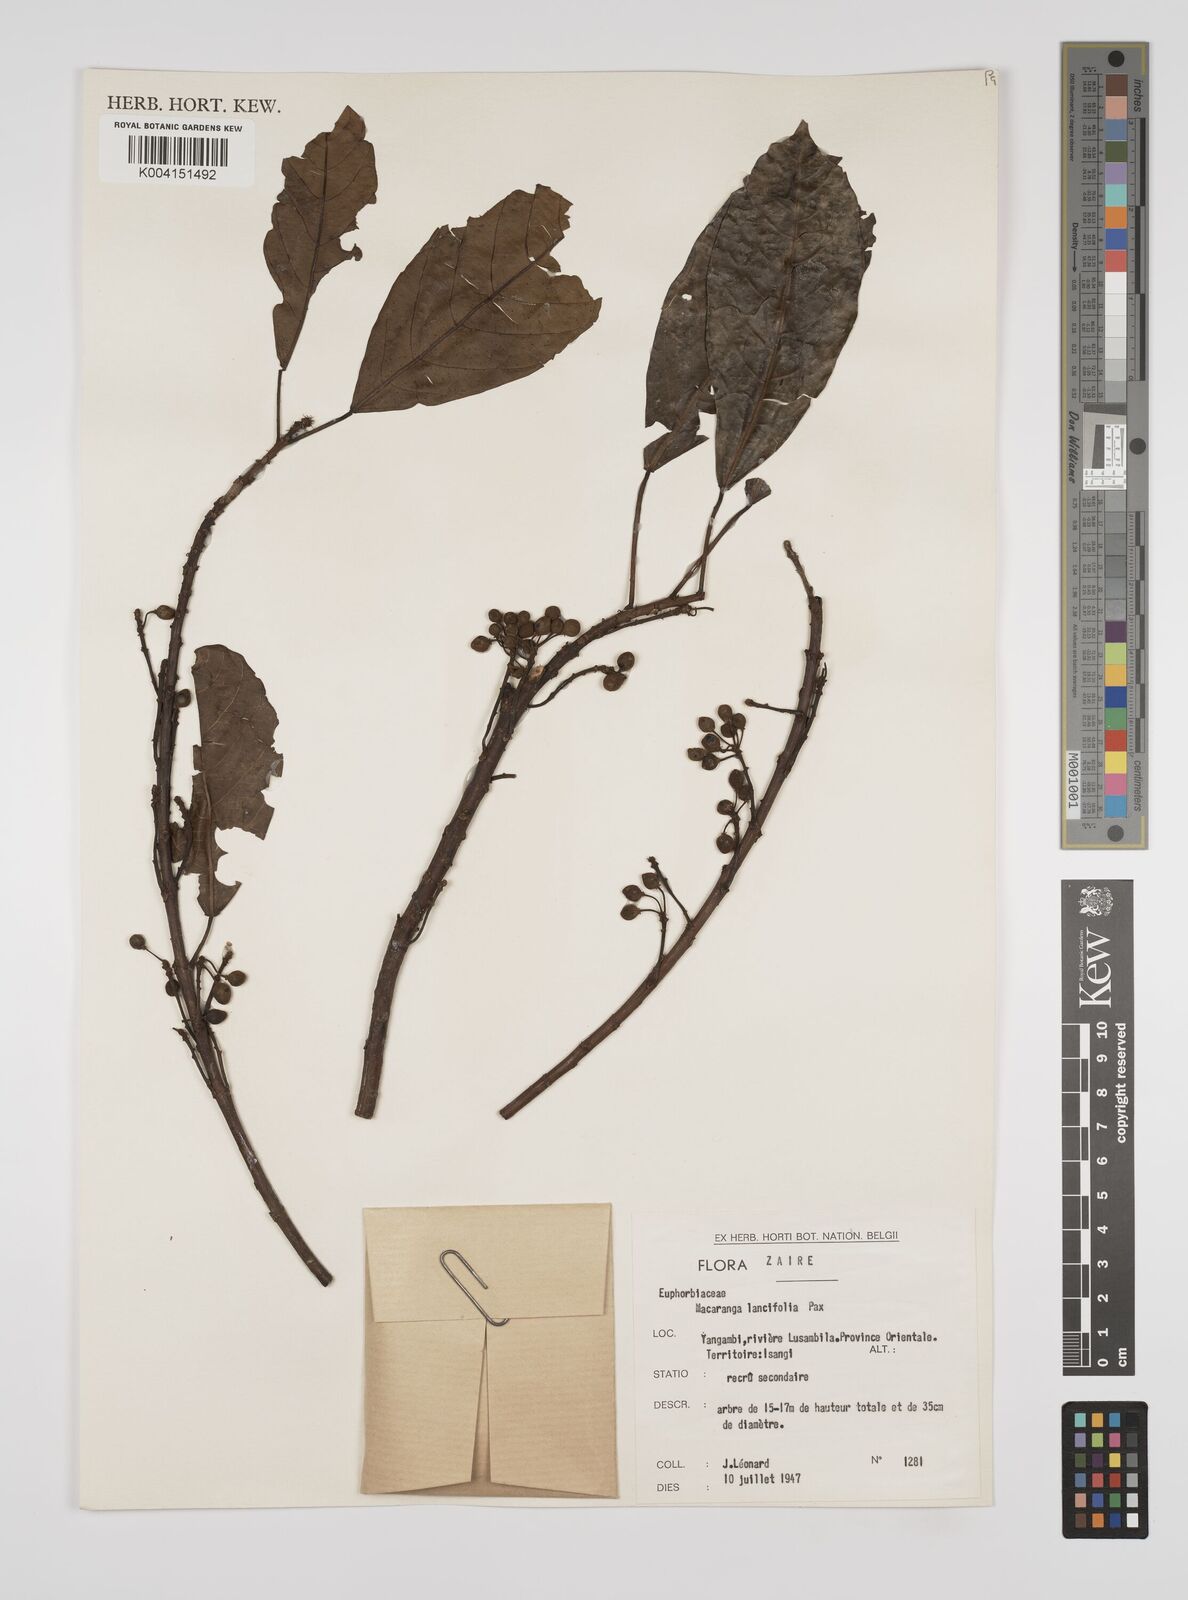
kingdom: Plantae
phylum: Tracheophyta
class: Magnoliopsida
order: Malpighiales
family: Euphorbiaceae
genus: Macaranga
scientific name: Macaranga barteri
